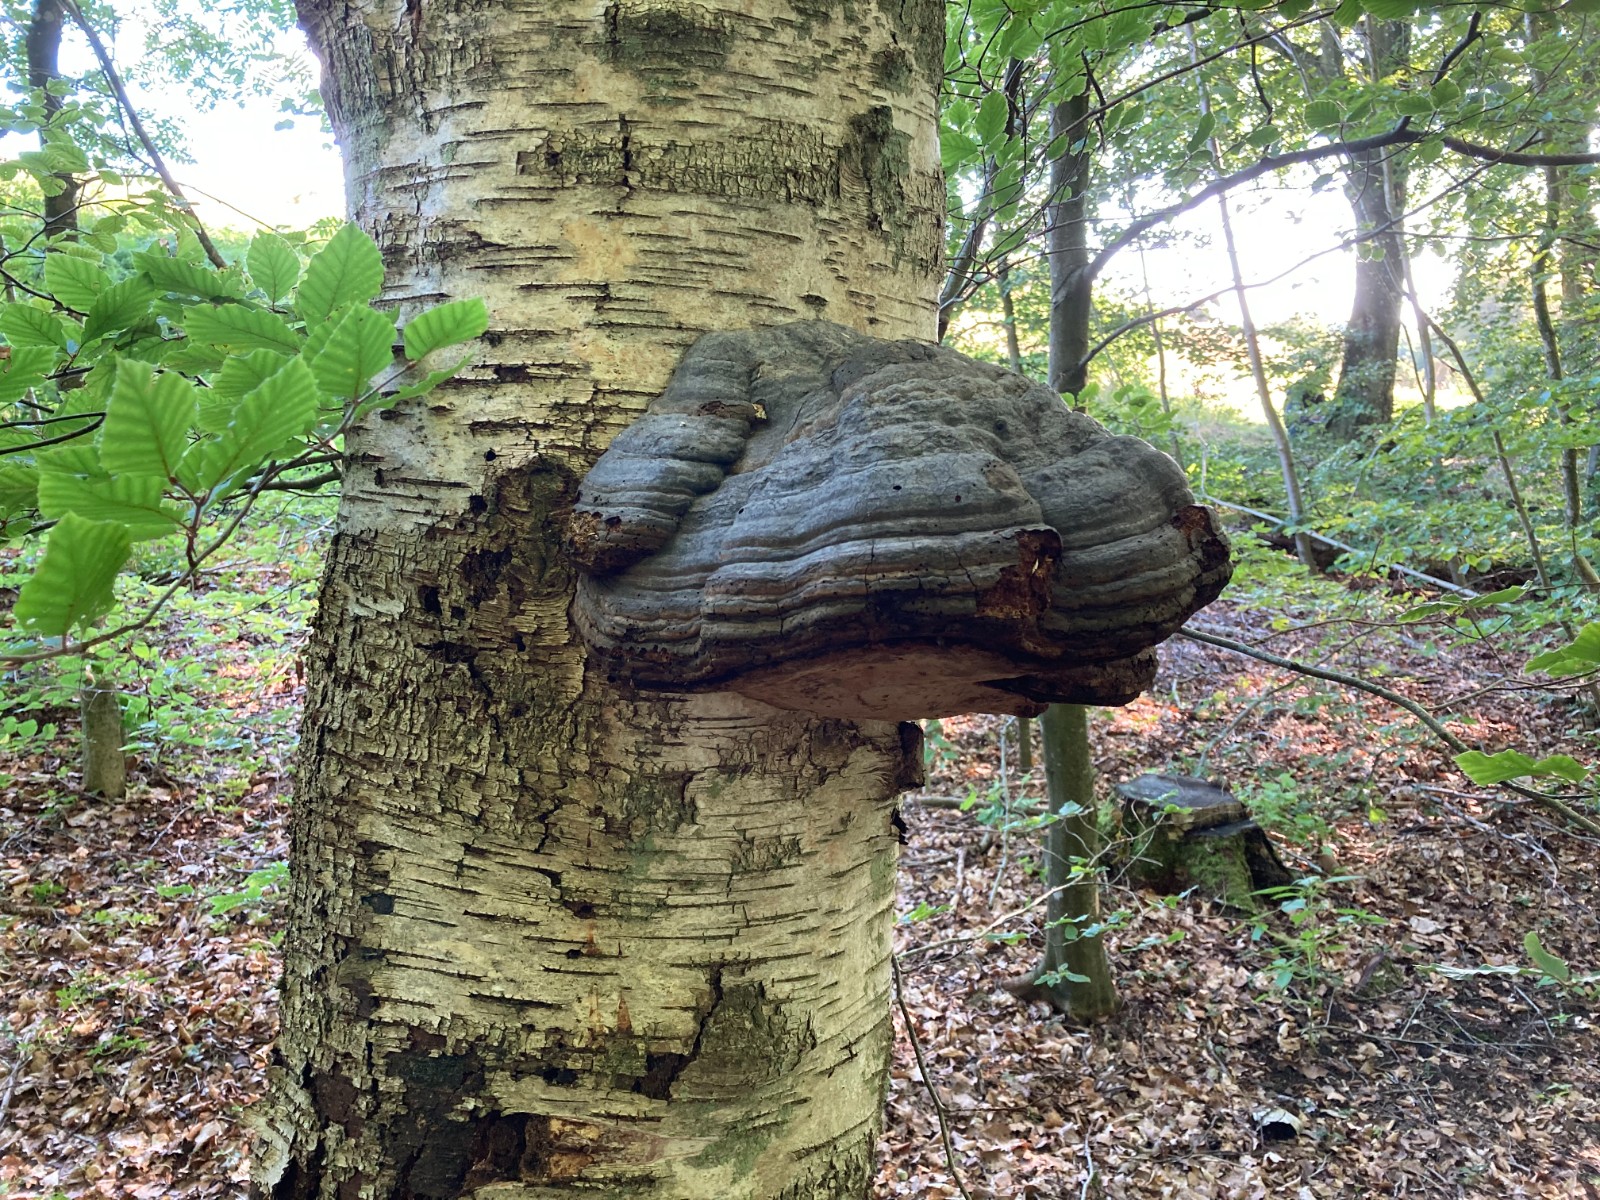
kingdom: Fungi
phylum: Basidiomycota
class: Agaricomycetes
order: Polyporales
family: Polyporaceae
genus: Fomes
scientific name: Fomes fomentarius
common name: tøndersvamp
